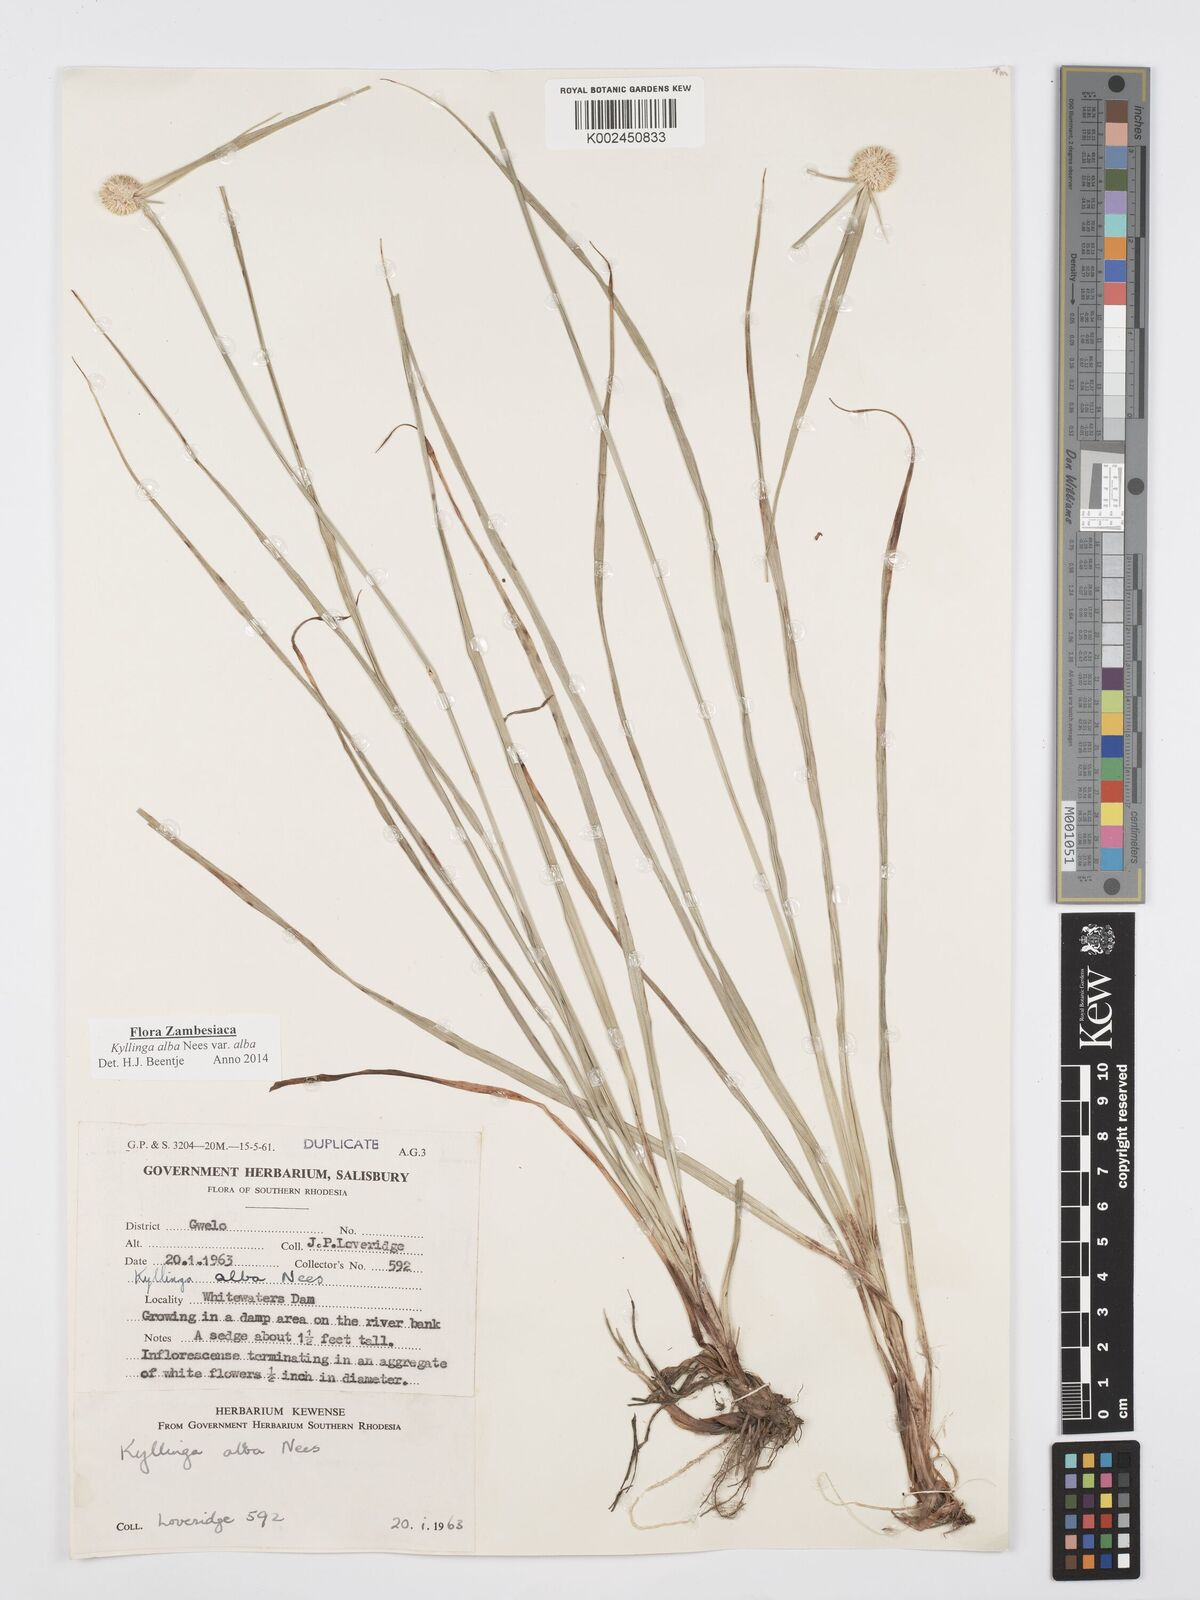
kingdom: Plantae
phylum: Tracheophyta
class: Liliopsida
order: Poales
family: Cyperaceae
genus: Cyperus
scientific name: Cyperus
